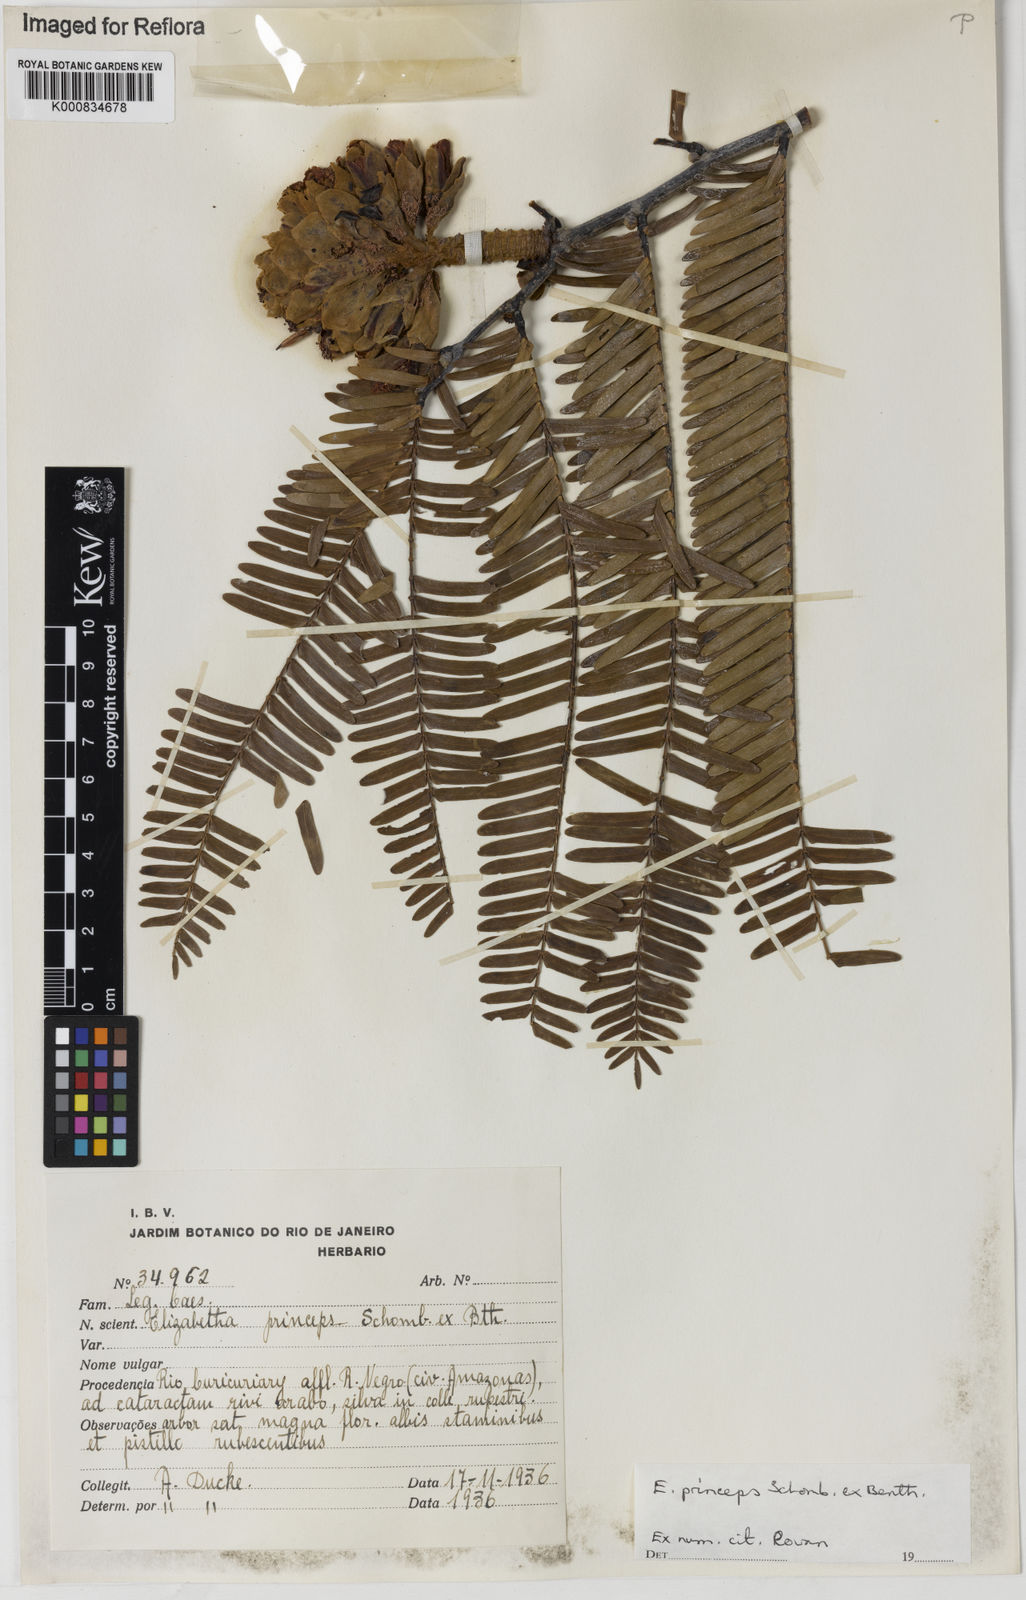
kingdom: Plantae
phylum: Tracheophyta
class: Magnoliopsida
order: Fabales
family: Fabaceae
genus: Paloue
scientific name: Paloue princeps
